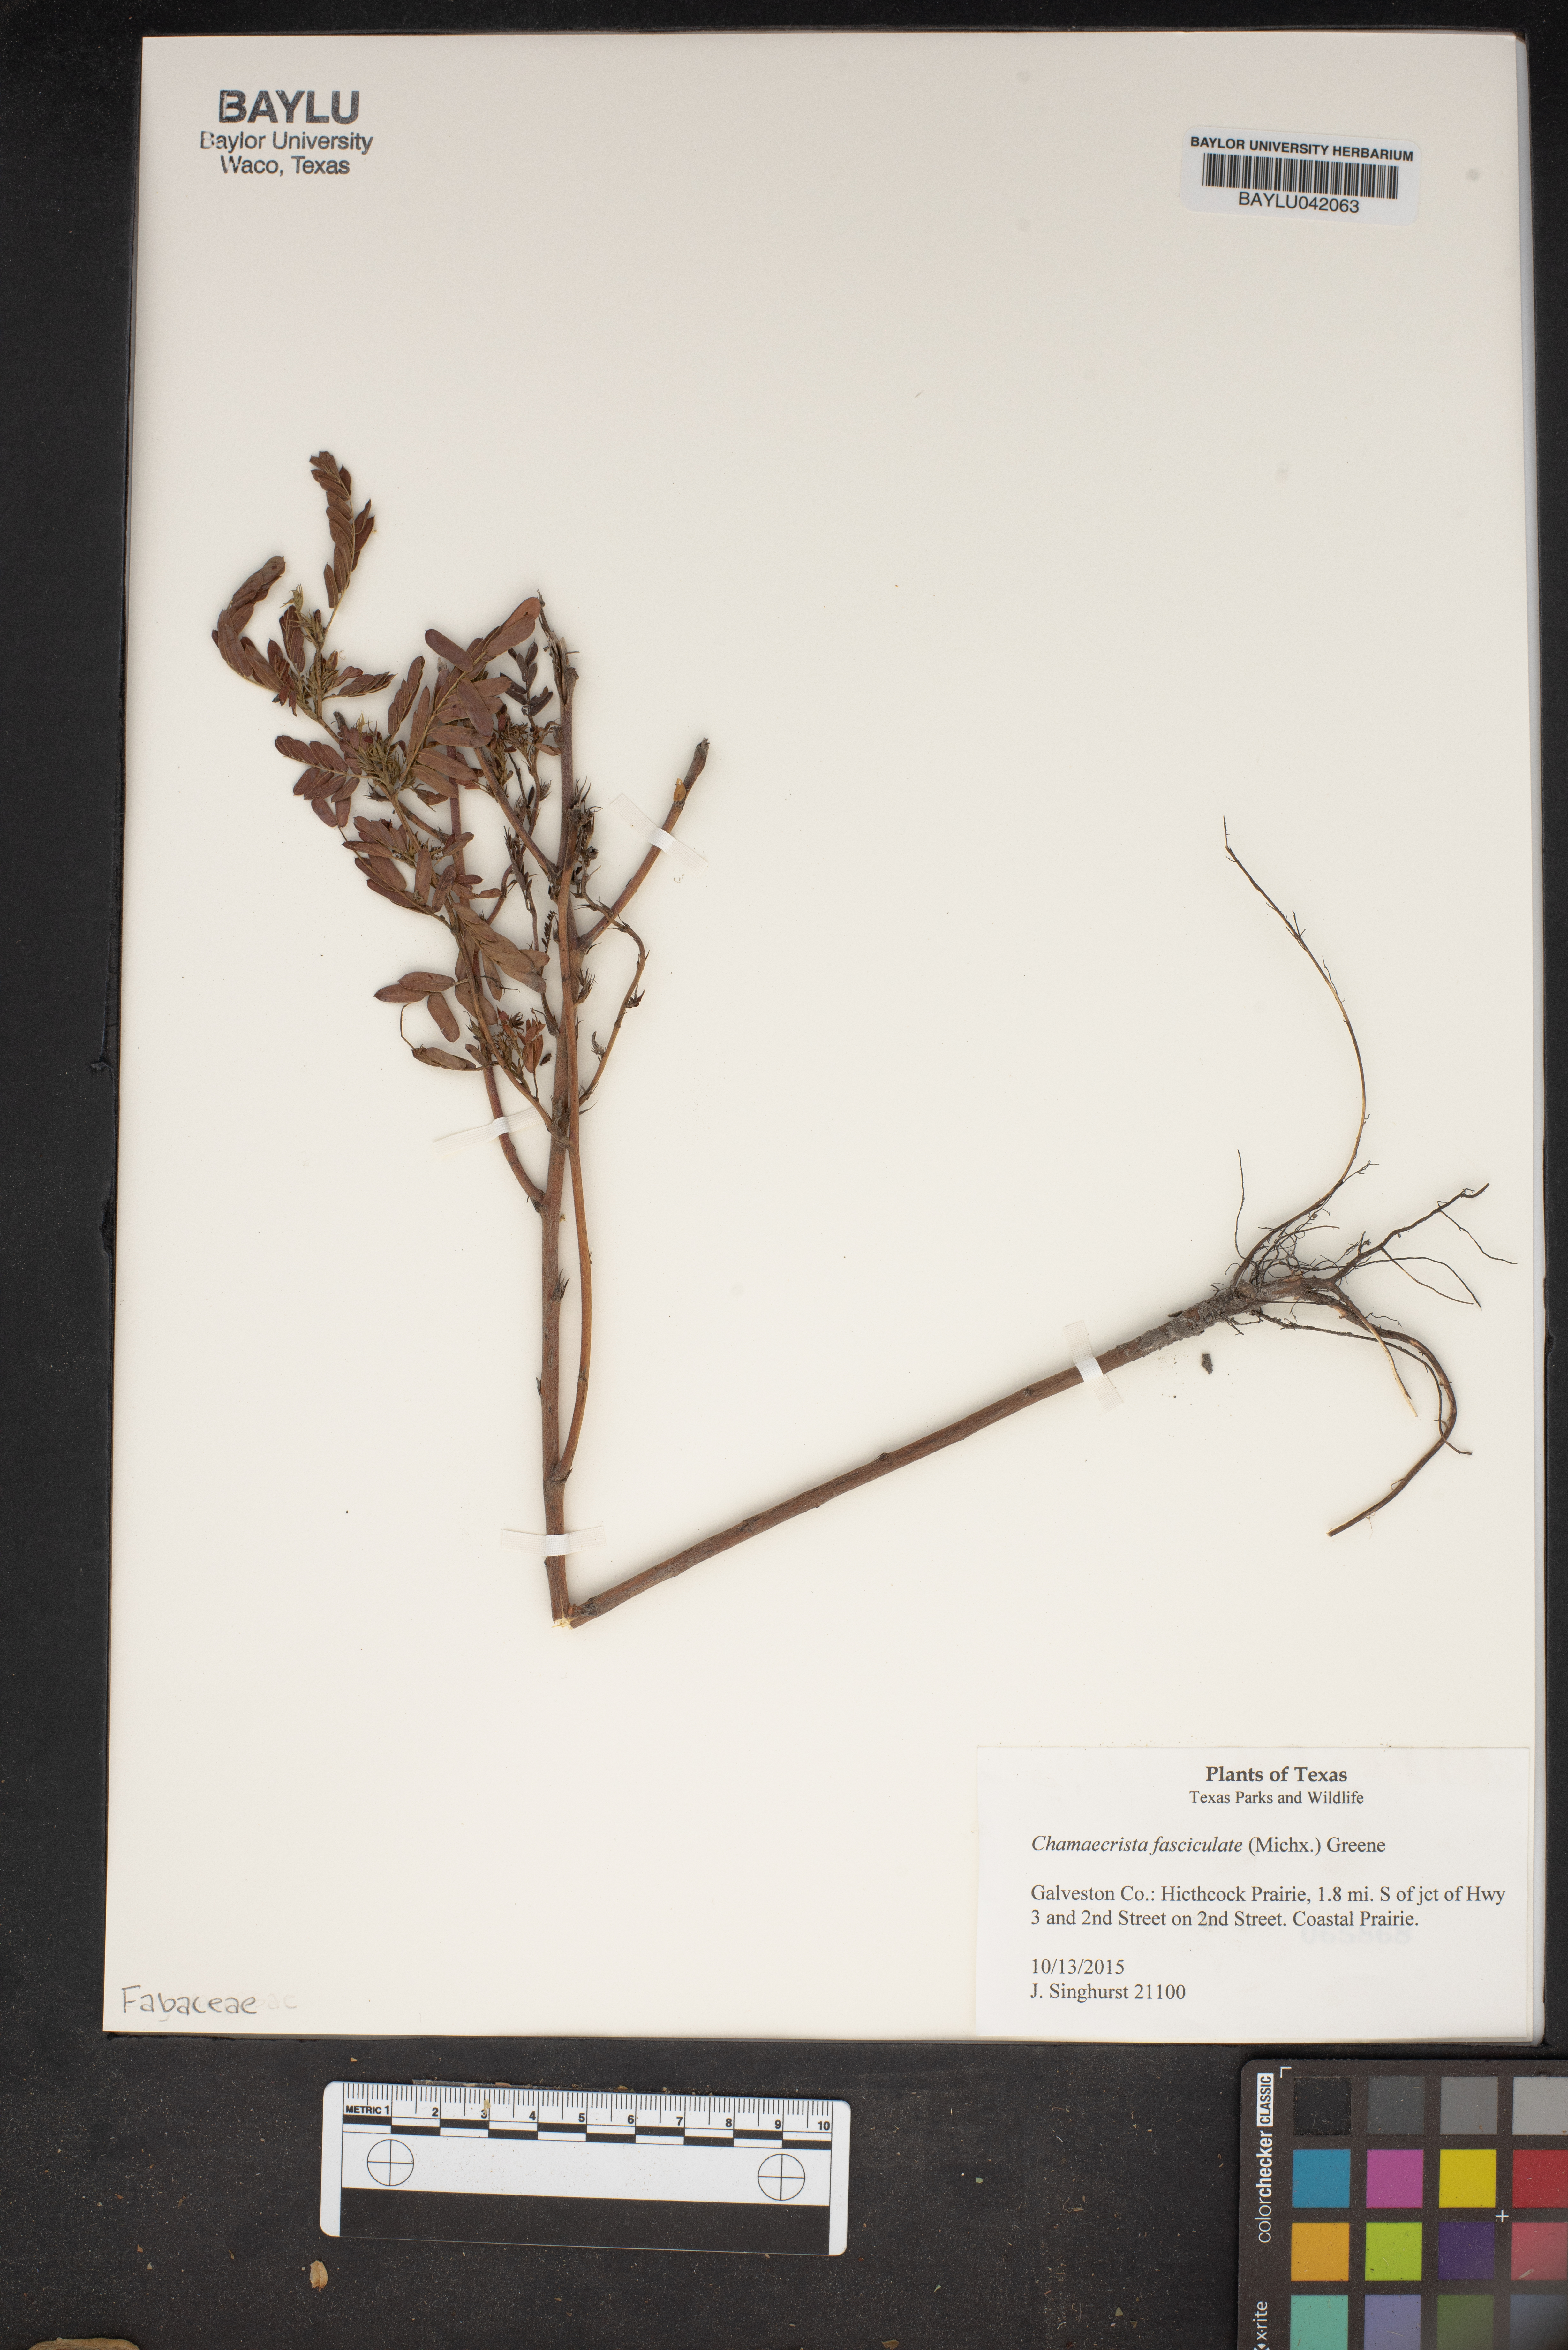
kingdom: Plantae
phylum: Tracheophyta
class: Magnoliopsida
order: Fabales
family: Fabaceae
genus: Chamaecrista
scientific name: Chamaecrista fasciculata
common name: Golden cassia
